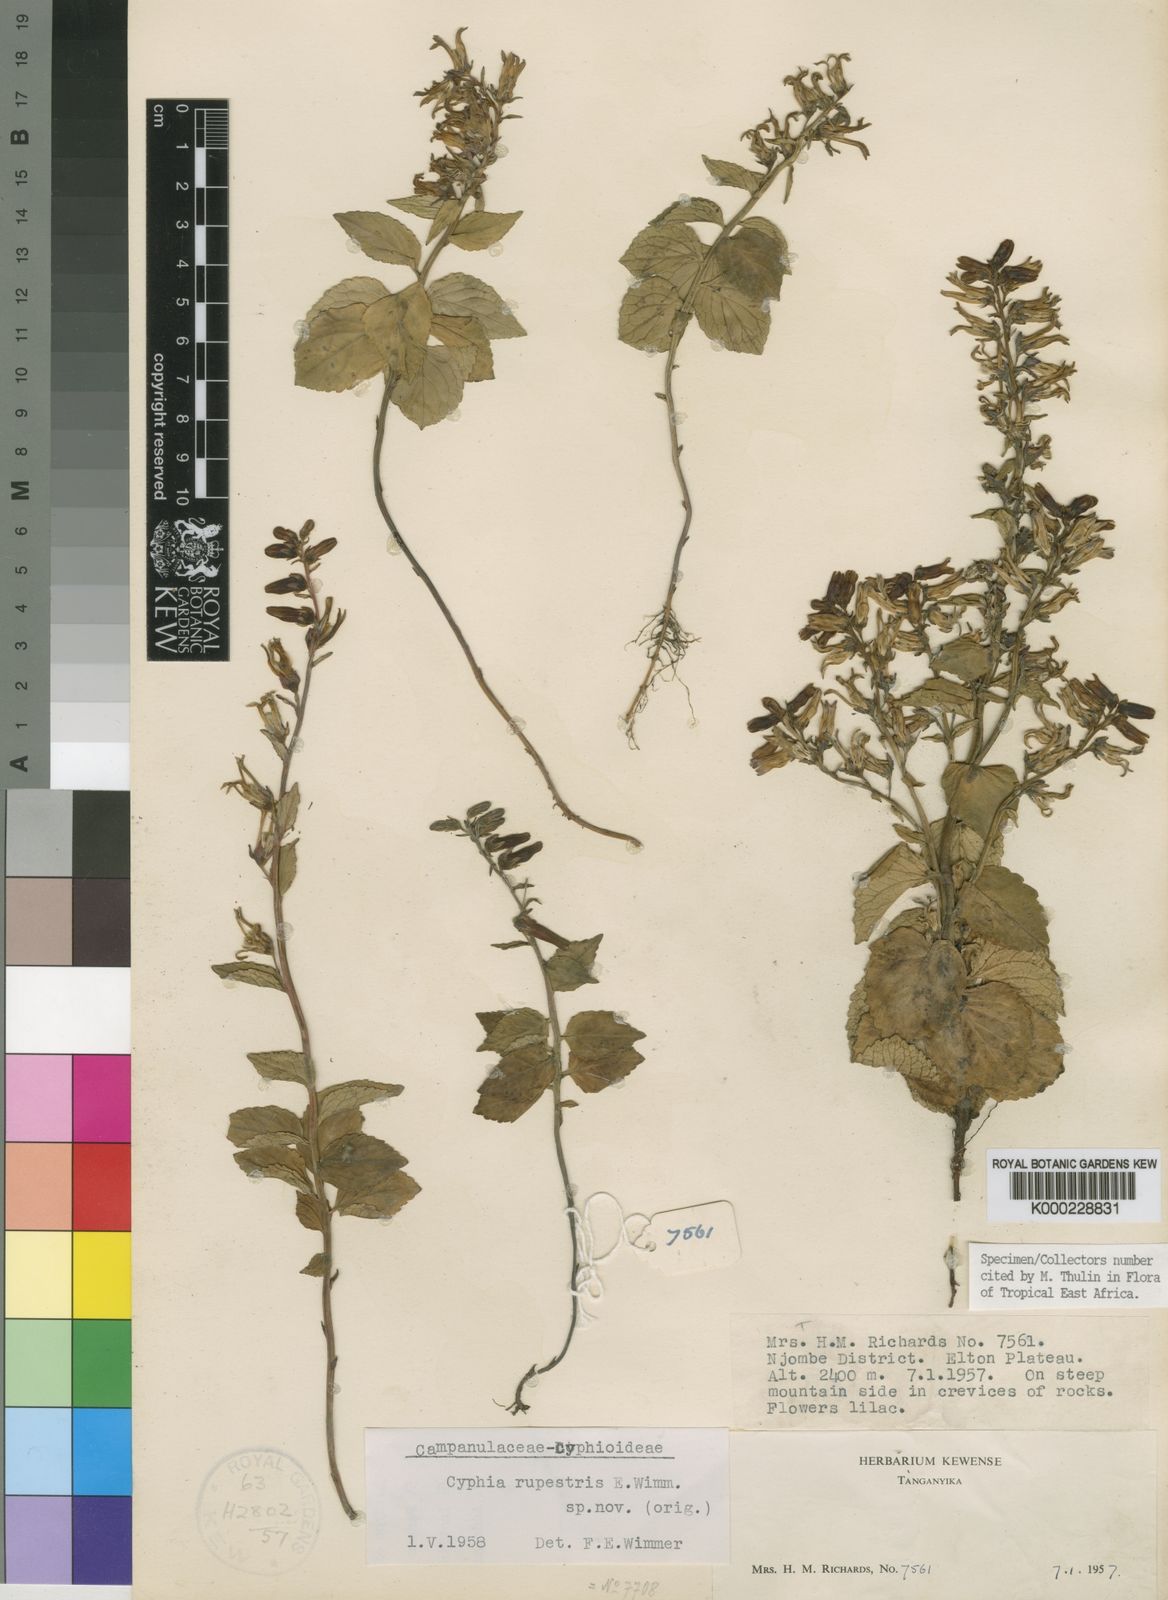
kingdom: Plantae
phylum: Tracheophyta
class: Magnoliopsida
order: Asterales
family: Campanulaceae
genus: Cyphia
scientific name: Cyphia rupestris
